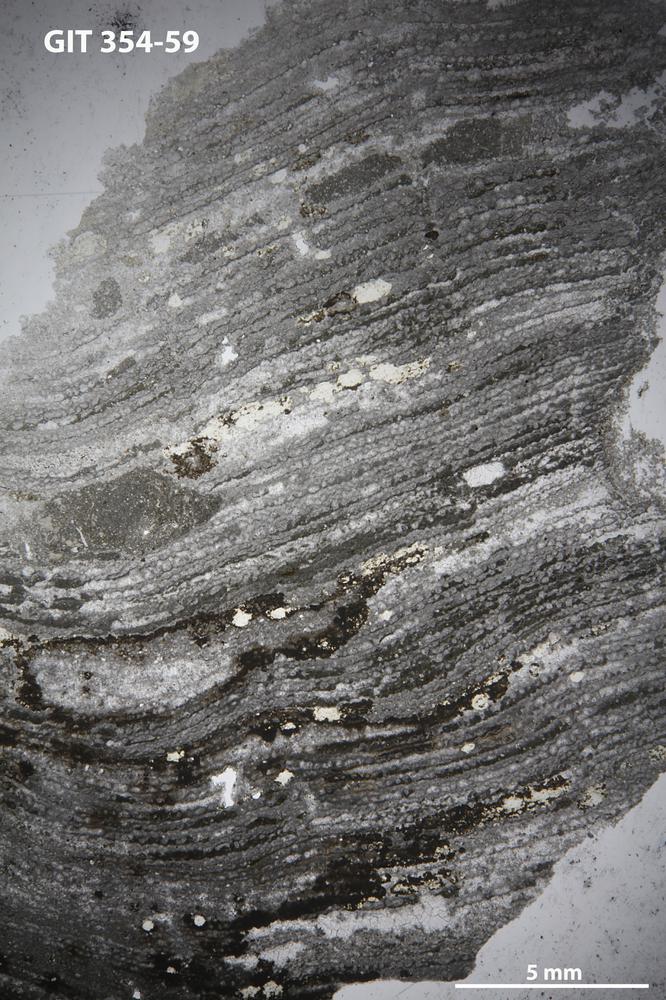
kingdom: Animalia
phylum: Porifera
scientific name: Porifera
